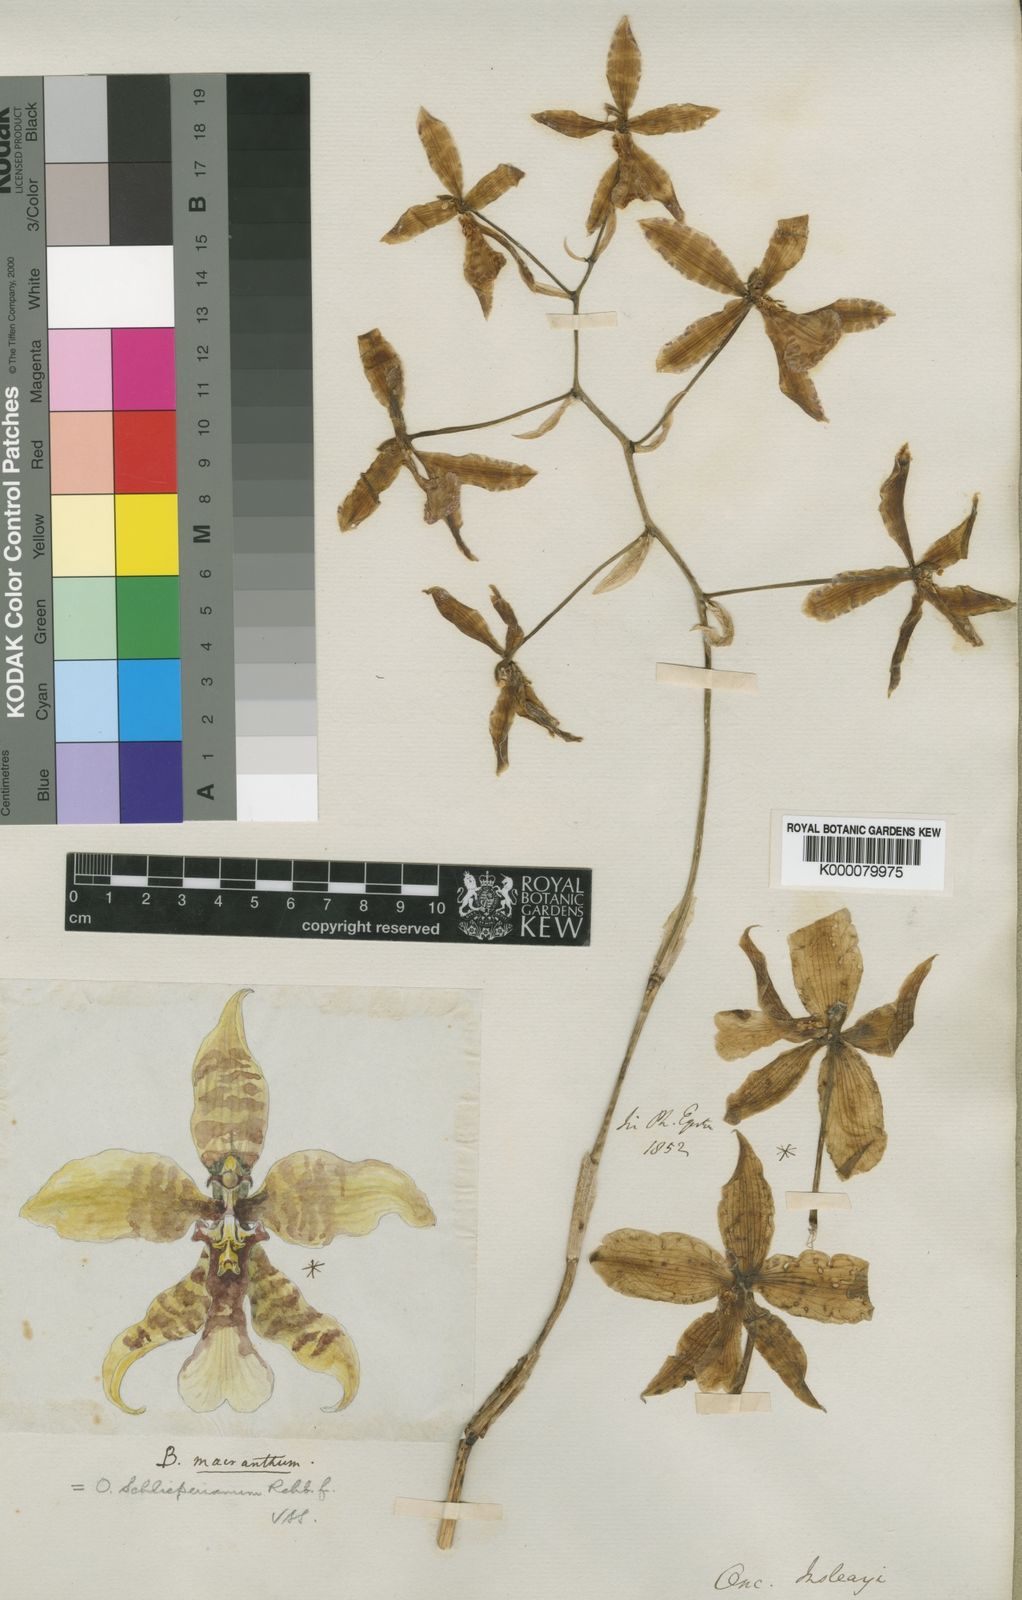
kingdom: Plantae
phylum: Tracheophyta
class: Liliopsida
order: Asparagales
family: Orchidaceae
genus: Rossioglossum
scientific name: Rossioglossum schlieperianum
